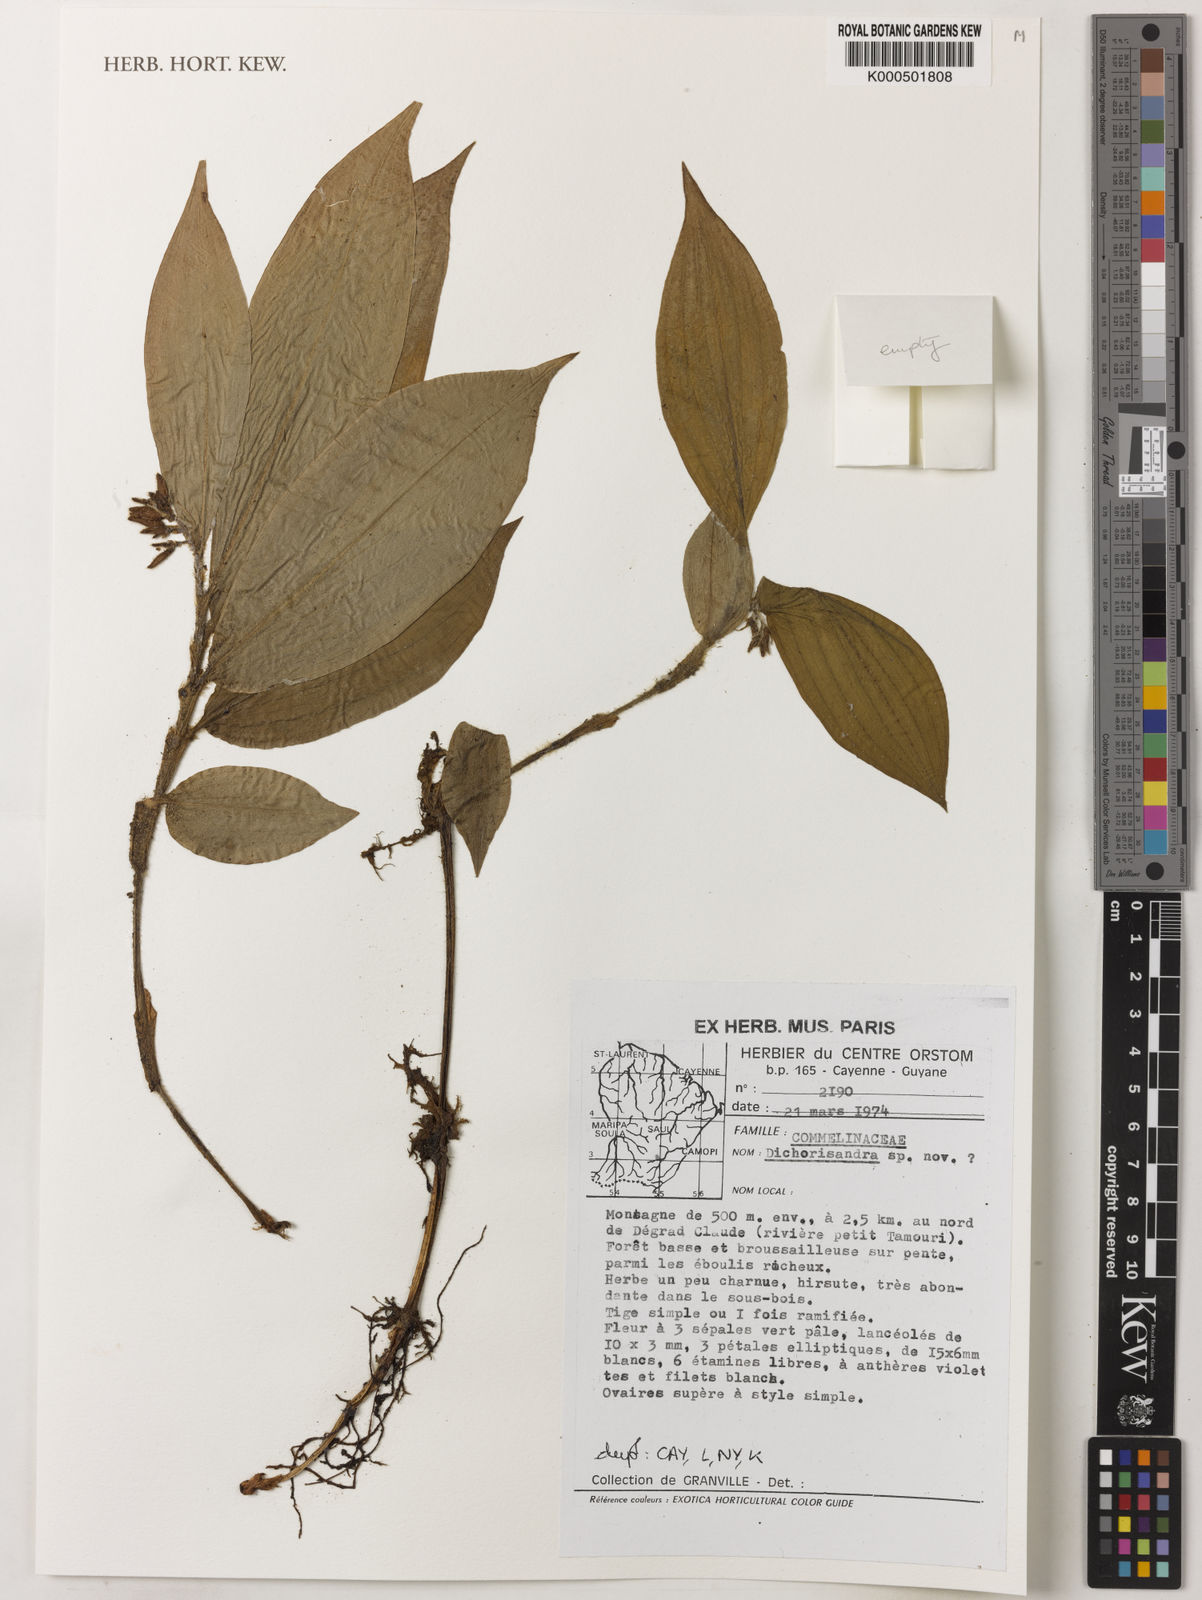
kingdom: Plantae
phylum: Tracheophyta
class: Liliopsida
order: Commelinales
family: Commelinaceae
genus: Dichorisandra
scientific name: Dichorisandra
